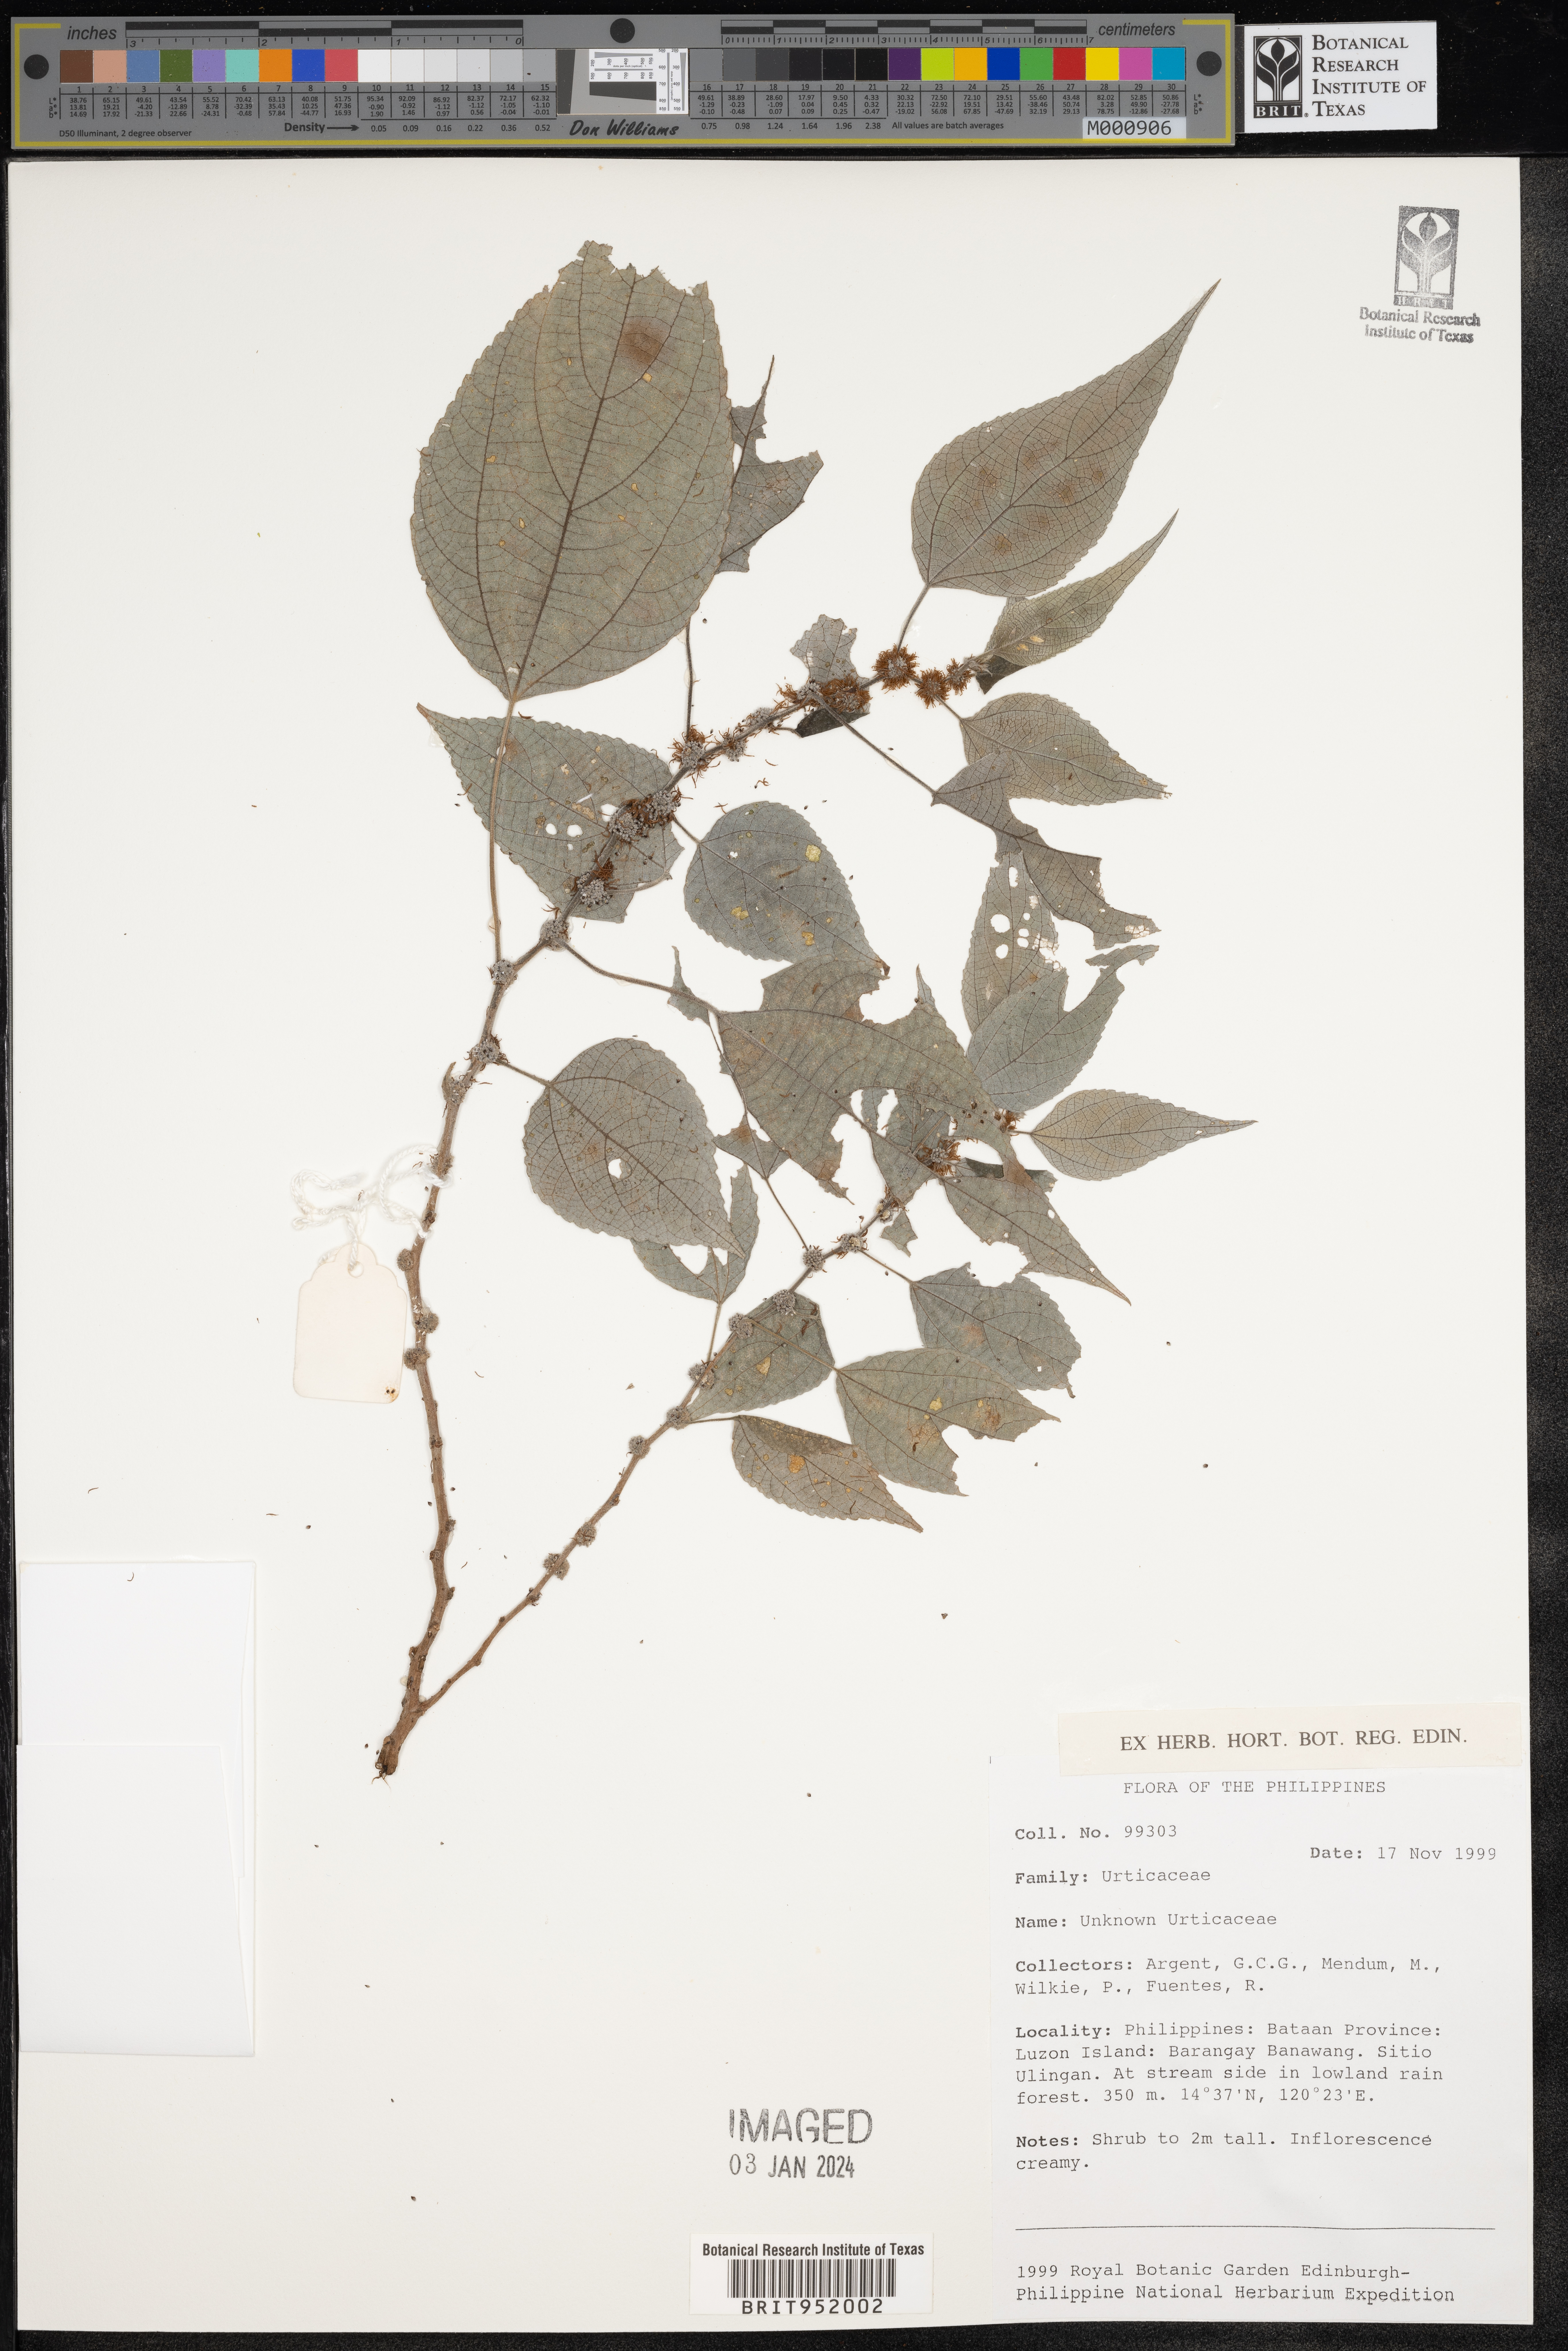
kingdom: Plantae
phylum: Tracheophyta
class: Magnoliopsida
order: Rosales
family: Urticaceae
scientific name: Urticaceae
